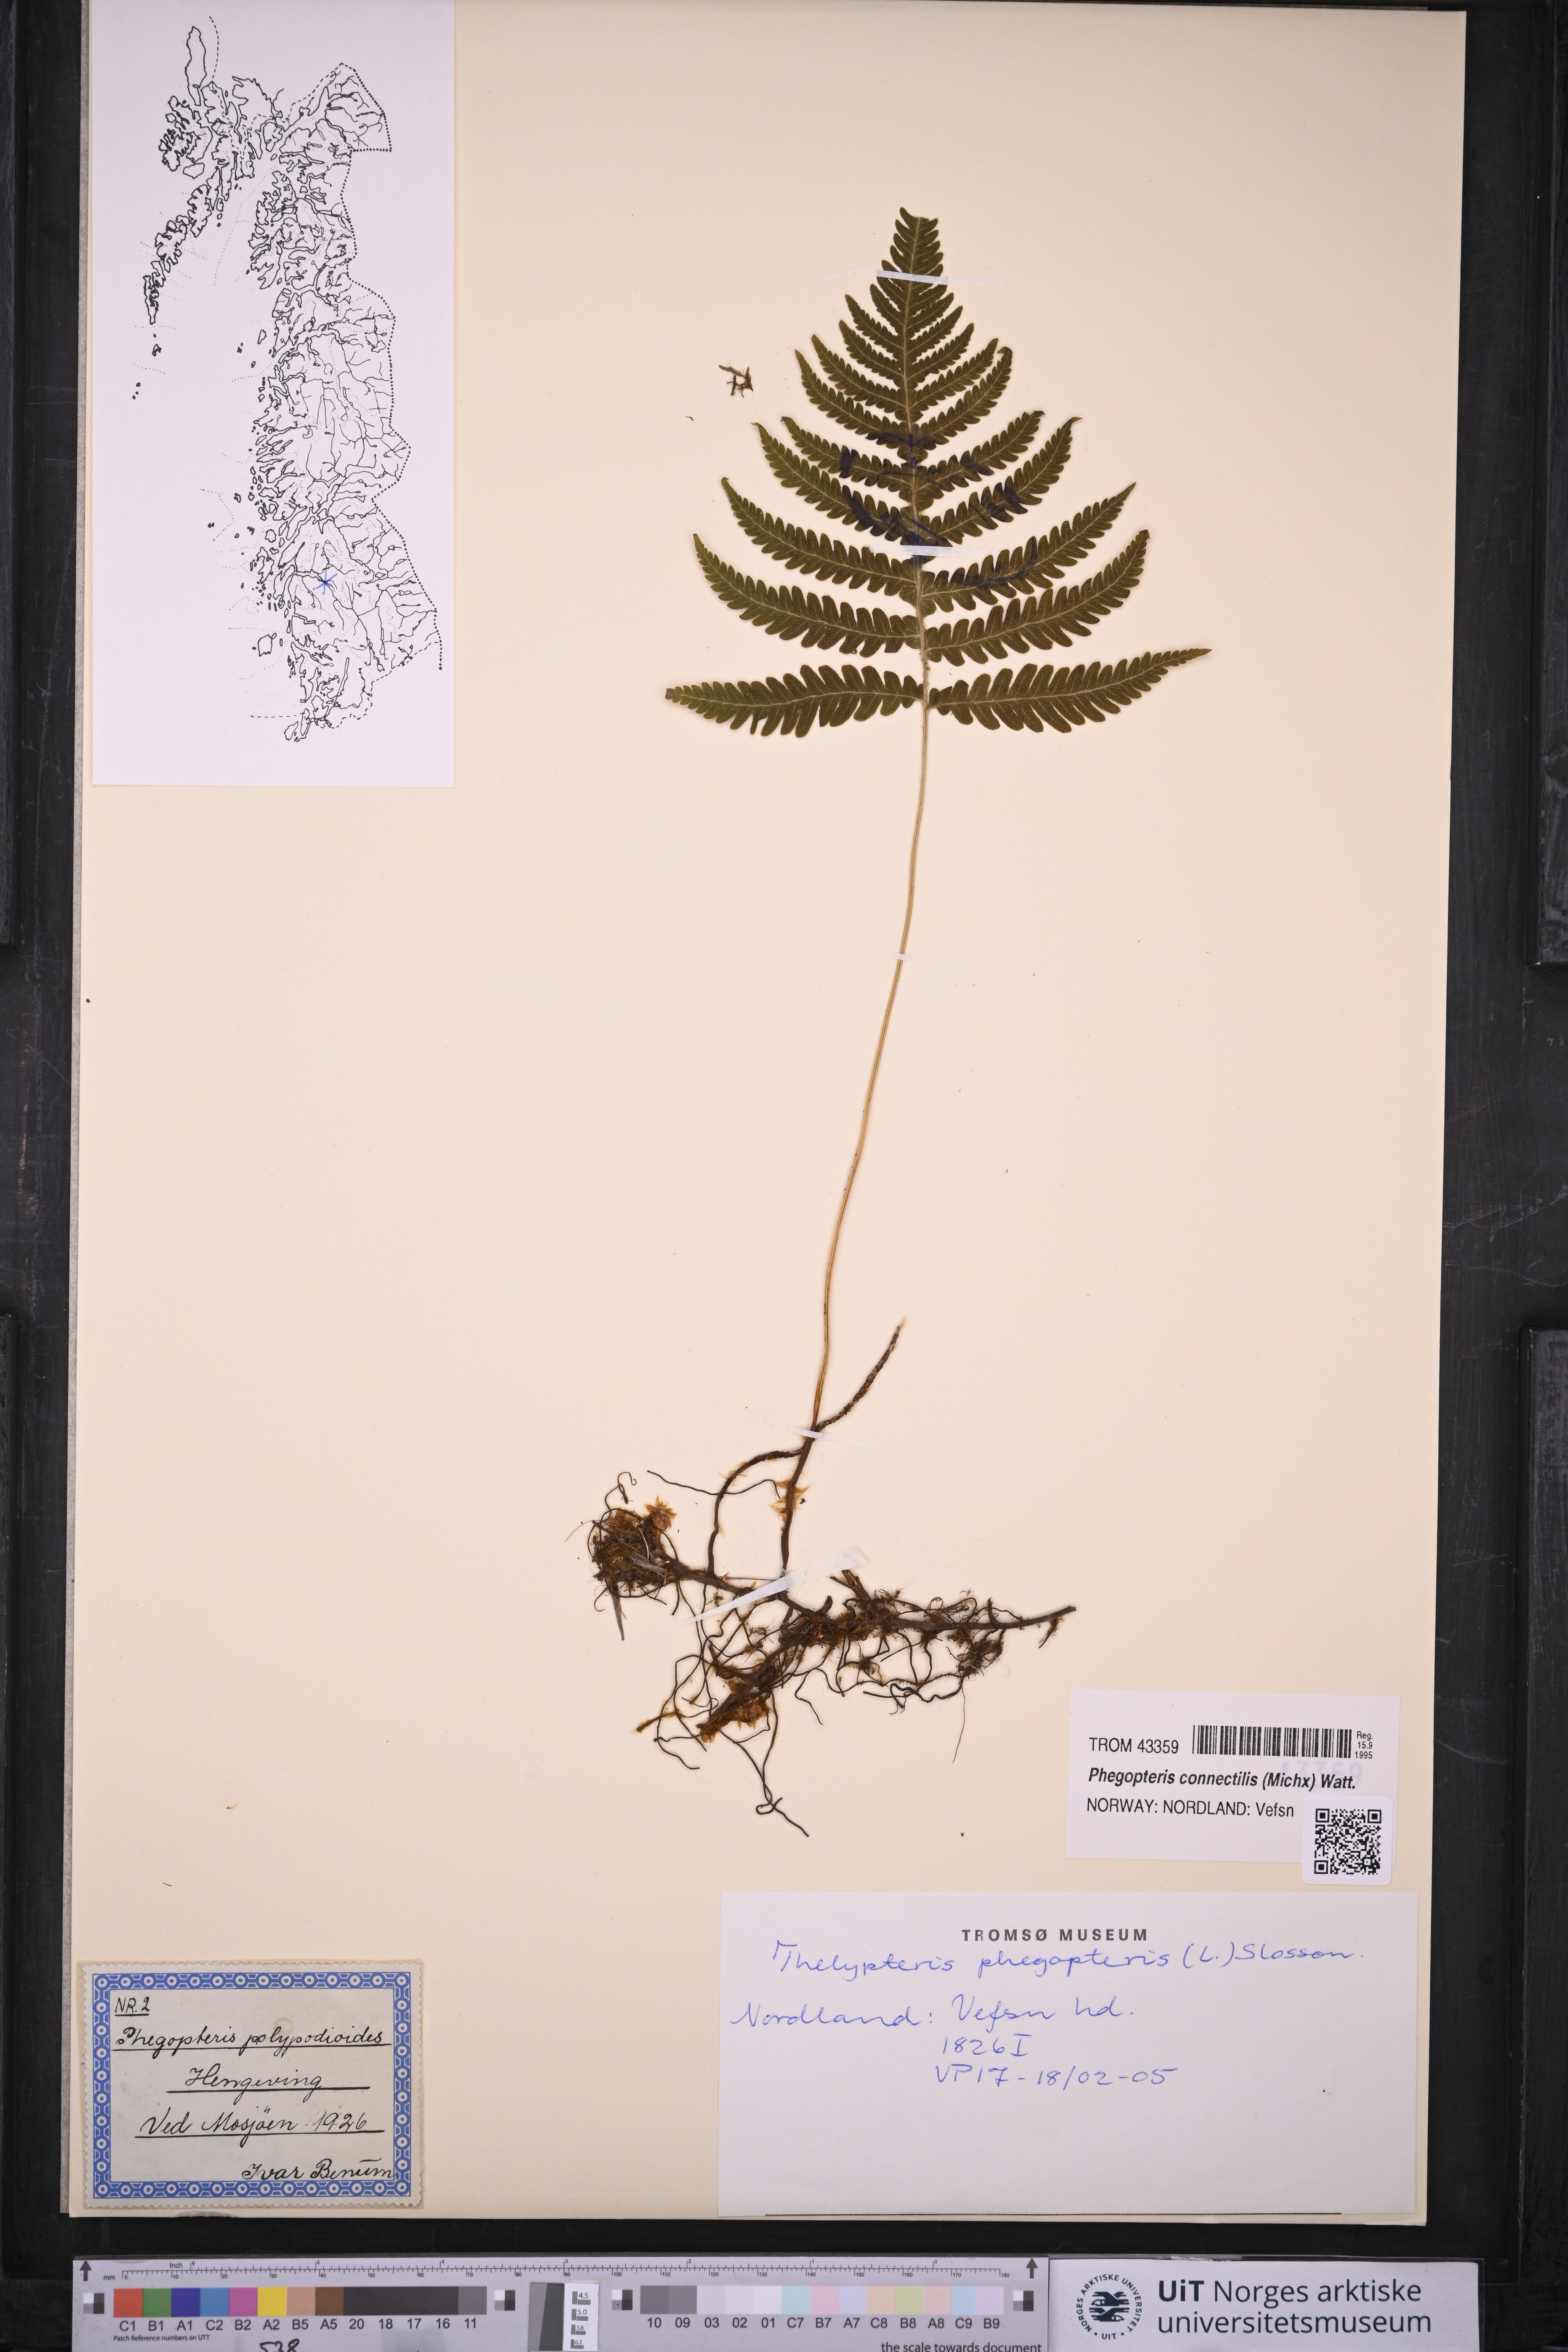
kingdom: Plantae
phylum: Tracheophyta
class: Polypodiopsida
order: Polypodiales
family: Thelypteridaceae
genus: Phegopteris
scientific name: Phegopteris connectilis
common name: Beech fern
